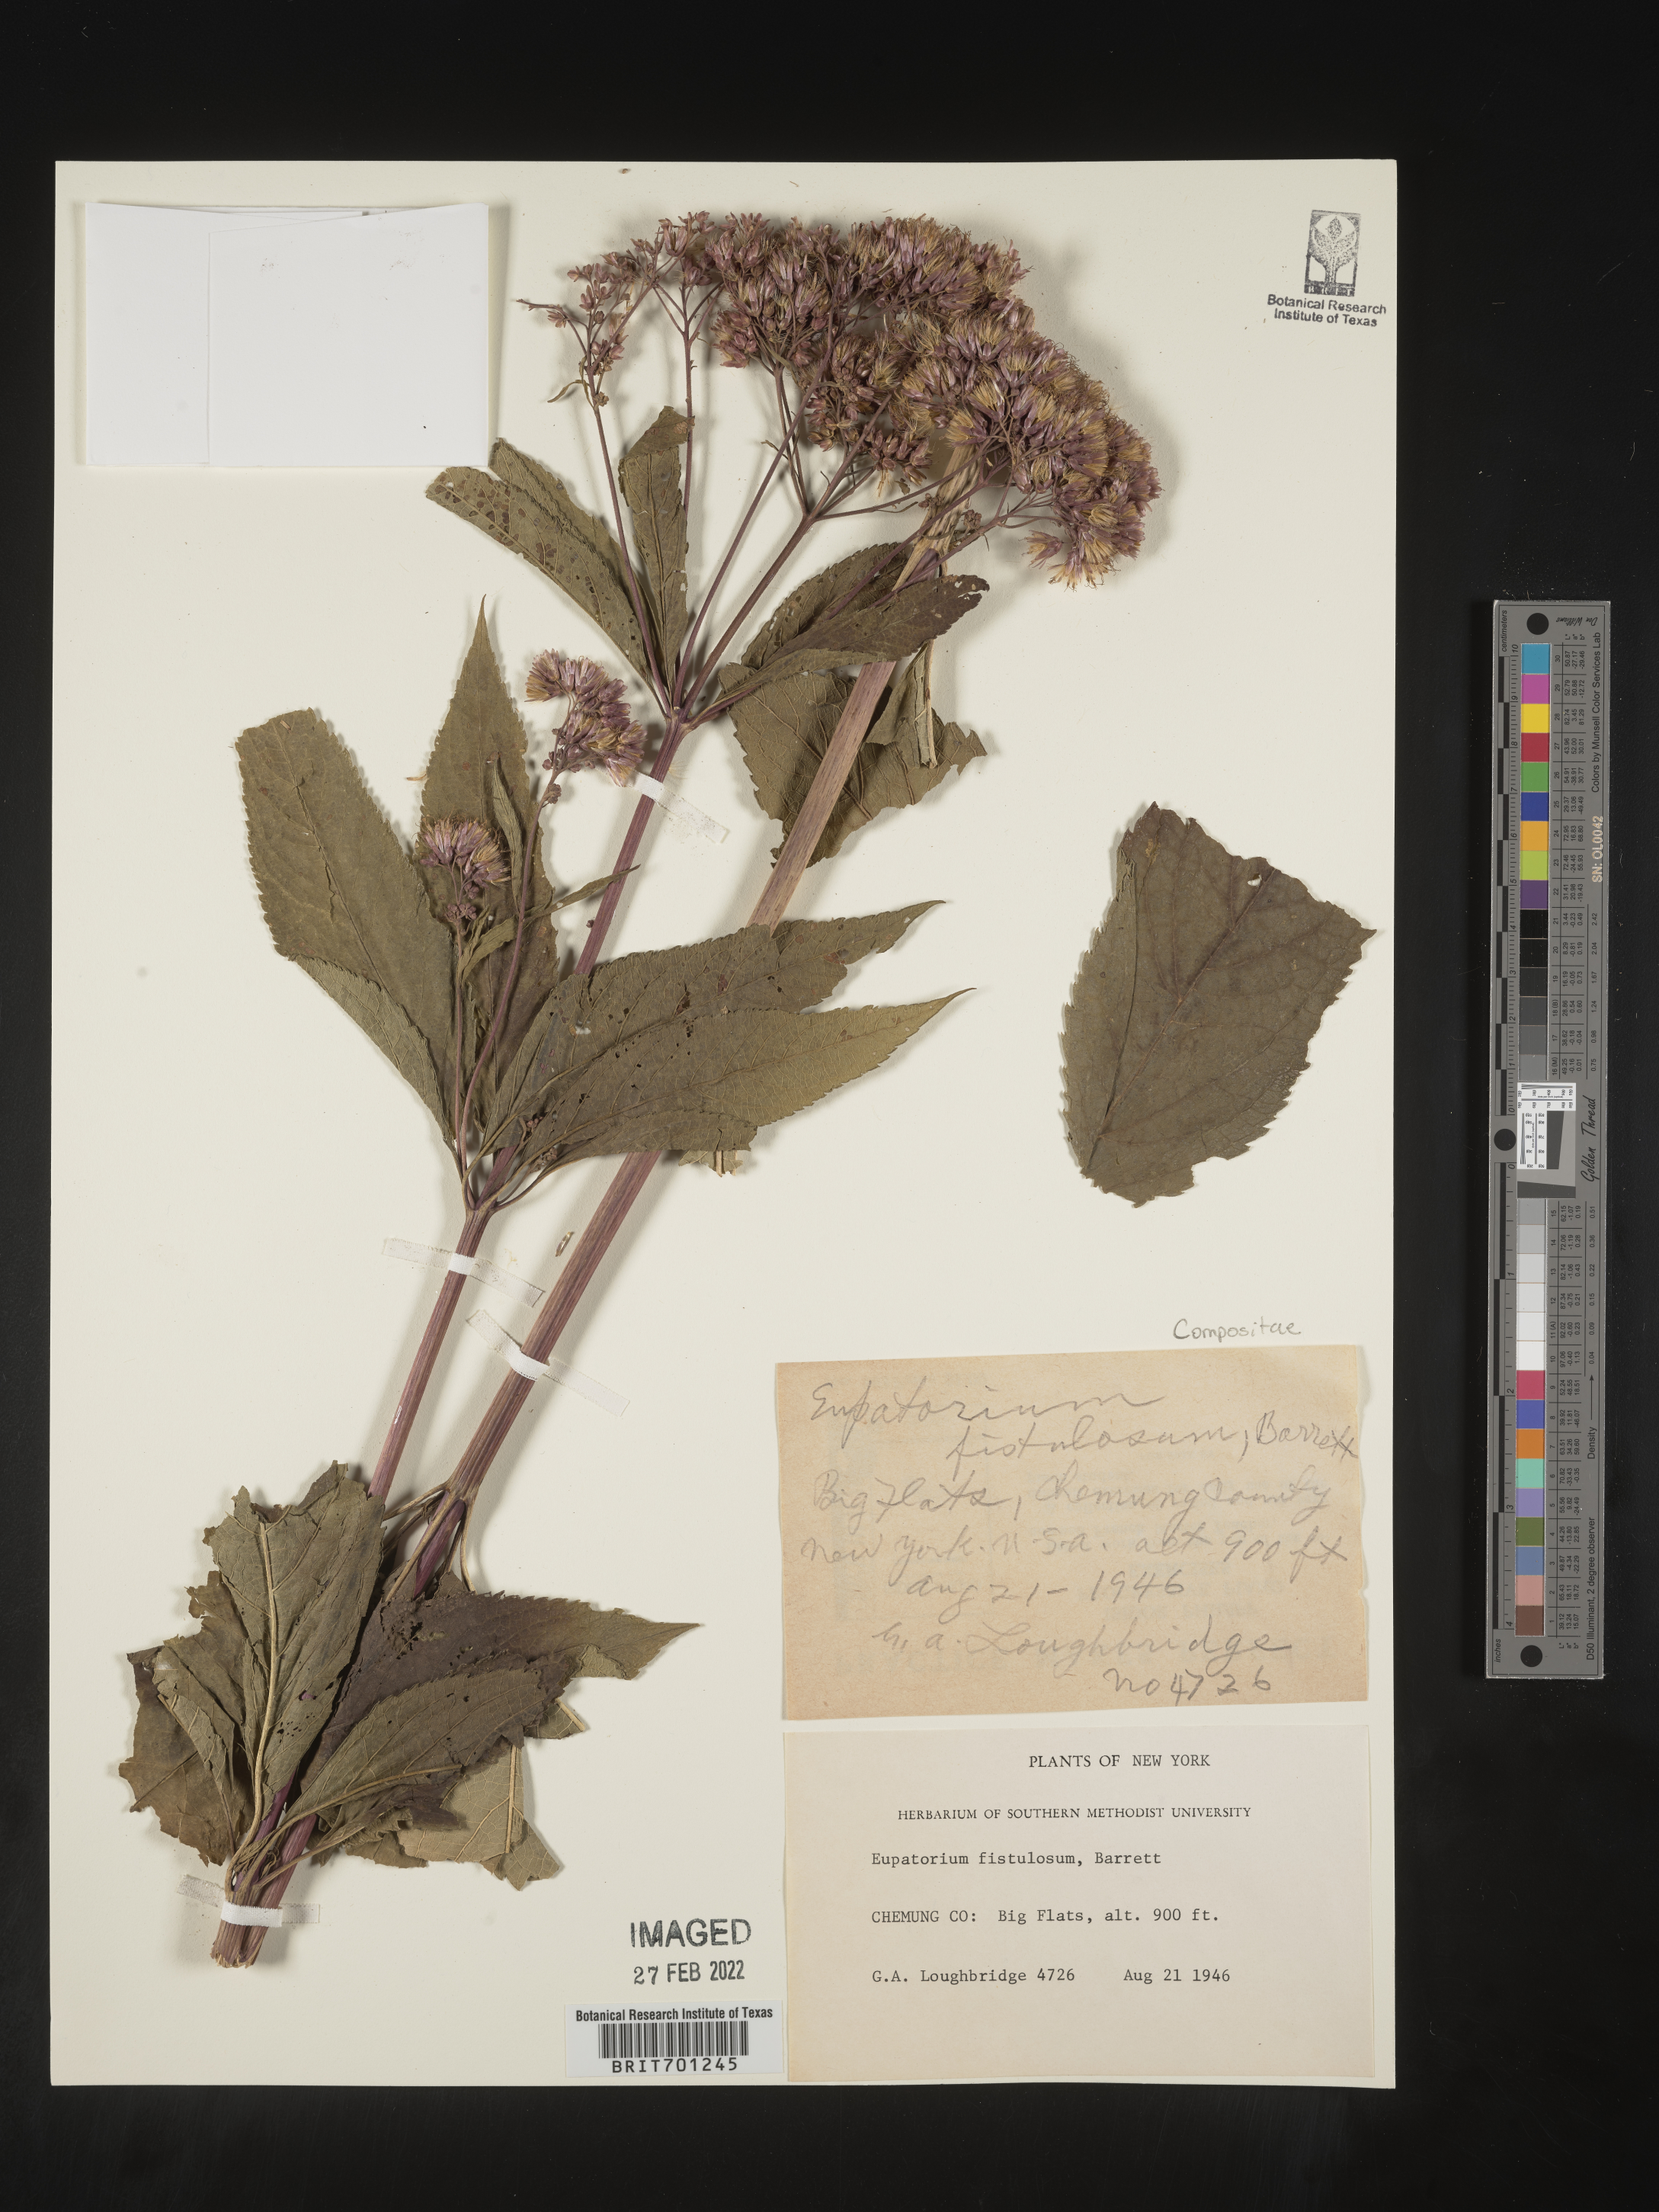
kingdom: Plantae
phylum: Tracheophyta
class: Magnoliopsida
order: Asterales
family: Asteraceae
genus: Eutrochium
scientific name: Eutrochium fistulosum
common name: Trumpetweed
